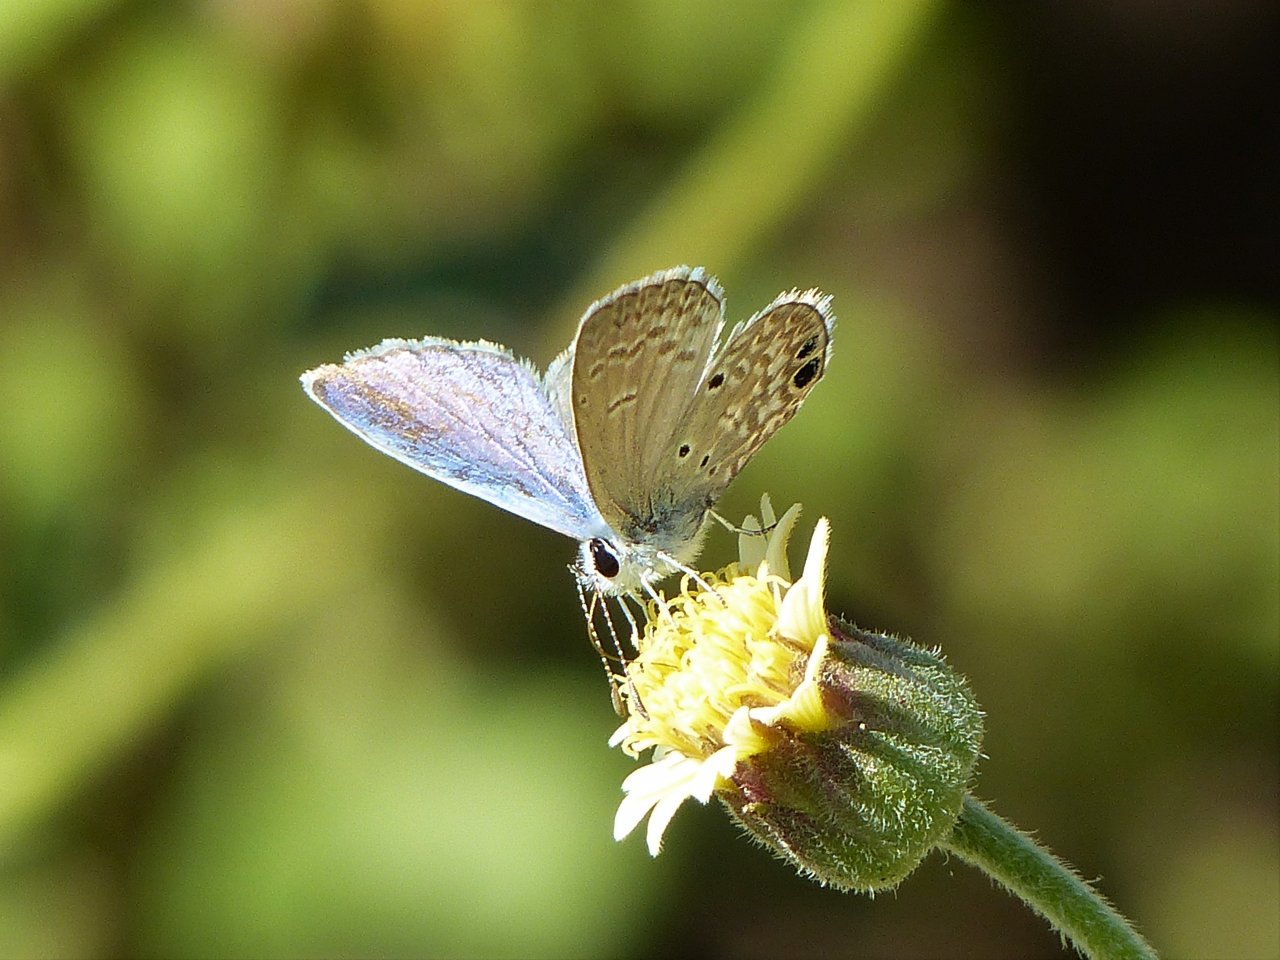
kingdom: Animalia
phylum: Arthropoda
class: Insecta
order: Lepidoptera
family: Lycaenidae
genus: Hemiargus
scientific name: Hemiargus ceraunus
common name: Ceraunus Blue
